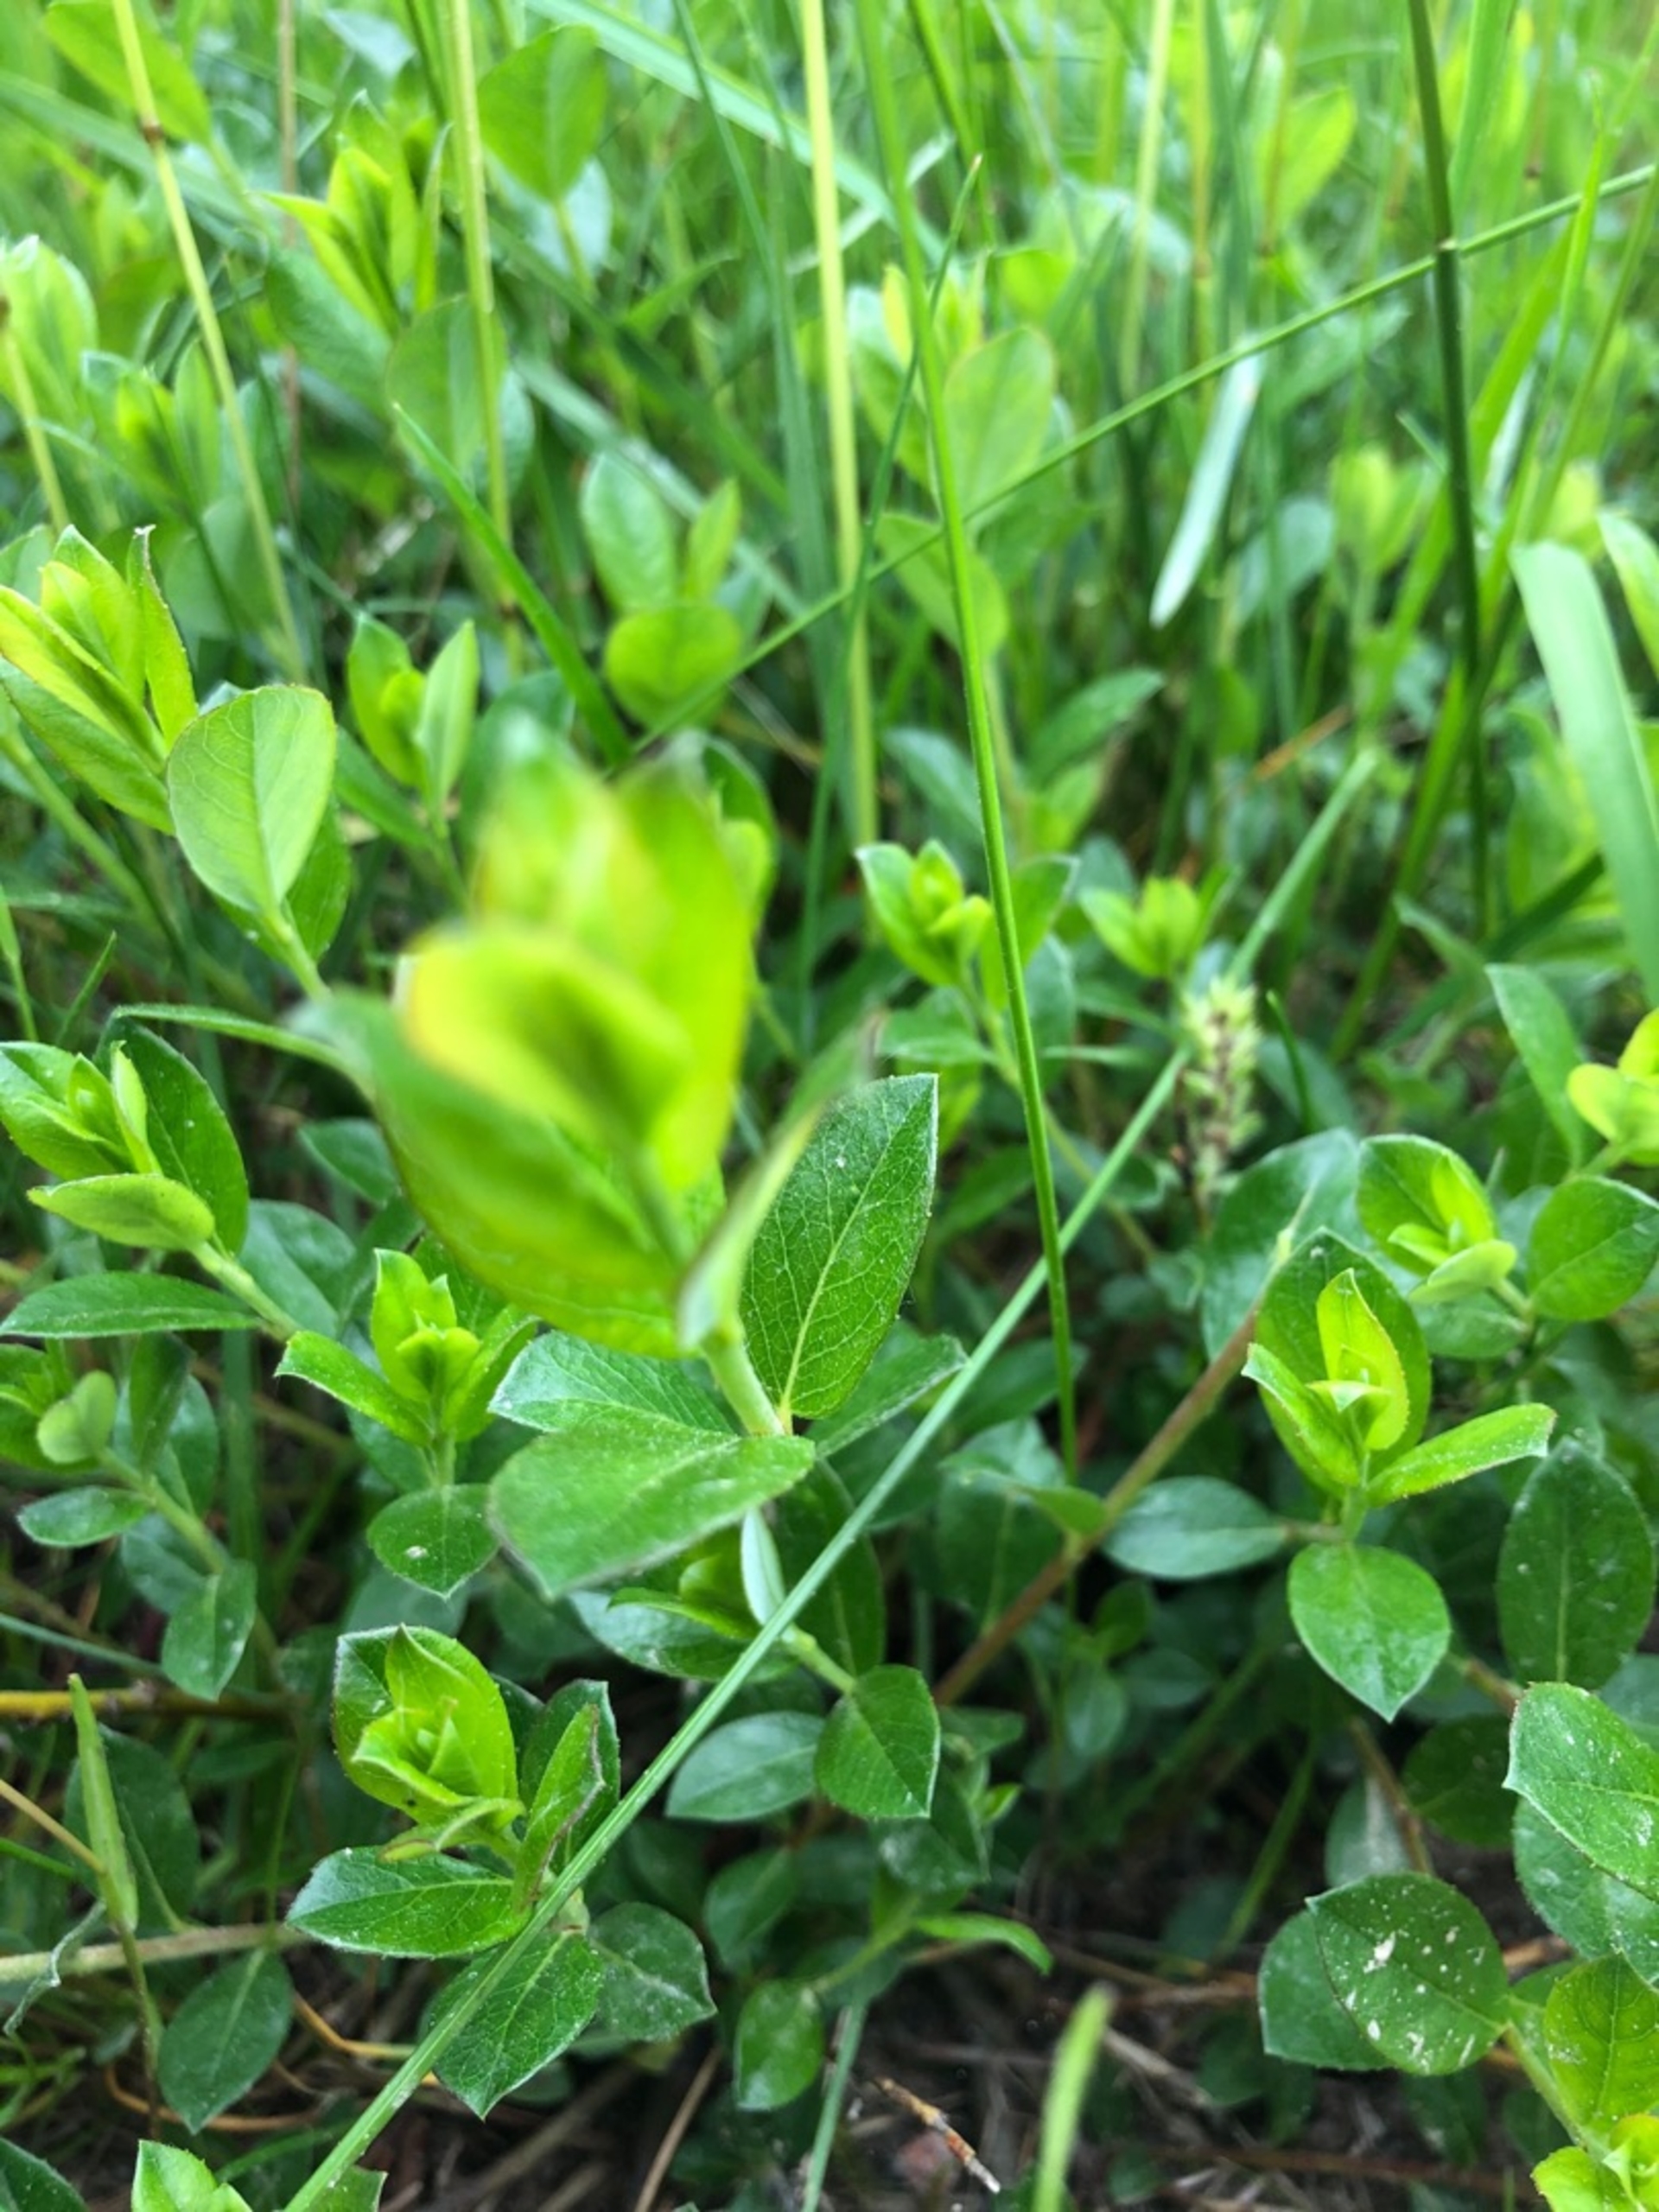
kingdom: Plantae
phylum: Tracheophyta
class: Magnoliopsida
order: Malpighiales
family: Salicaceae
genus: Salix
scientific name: Salix repens
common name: Krybende pil
